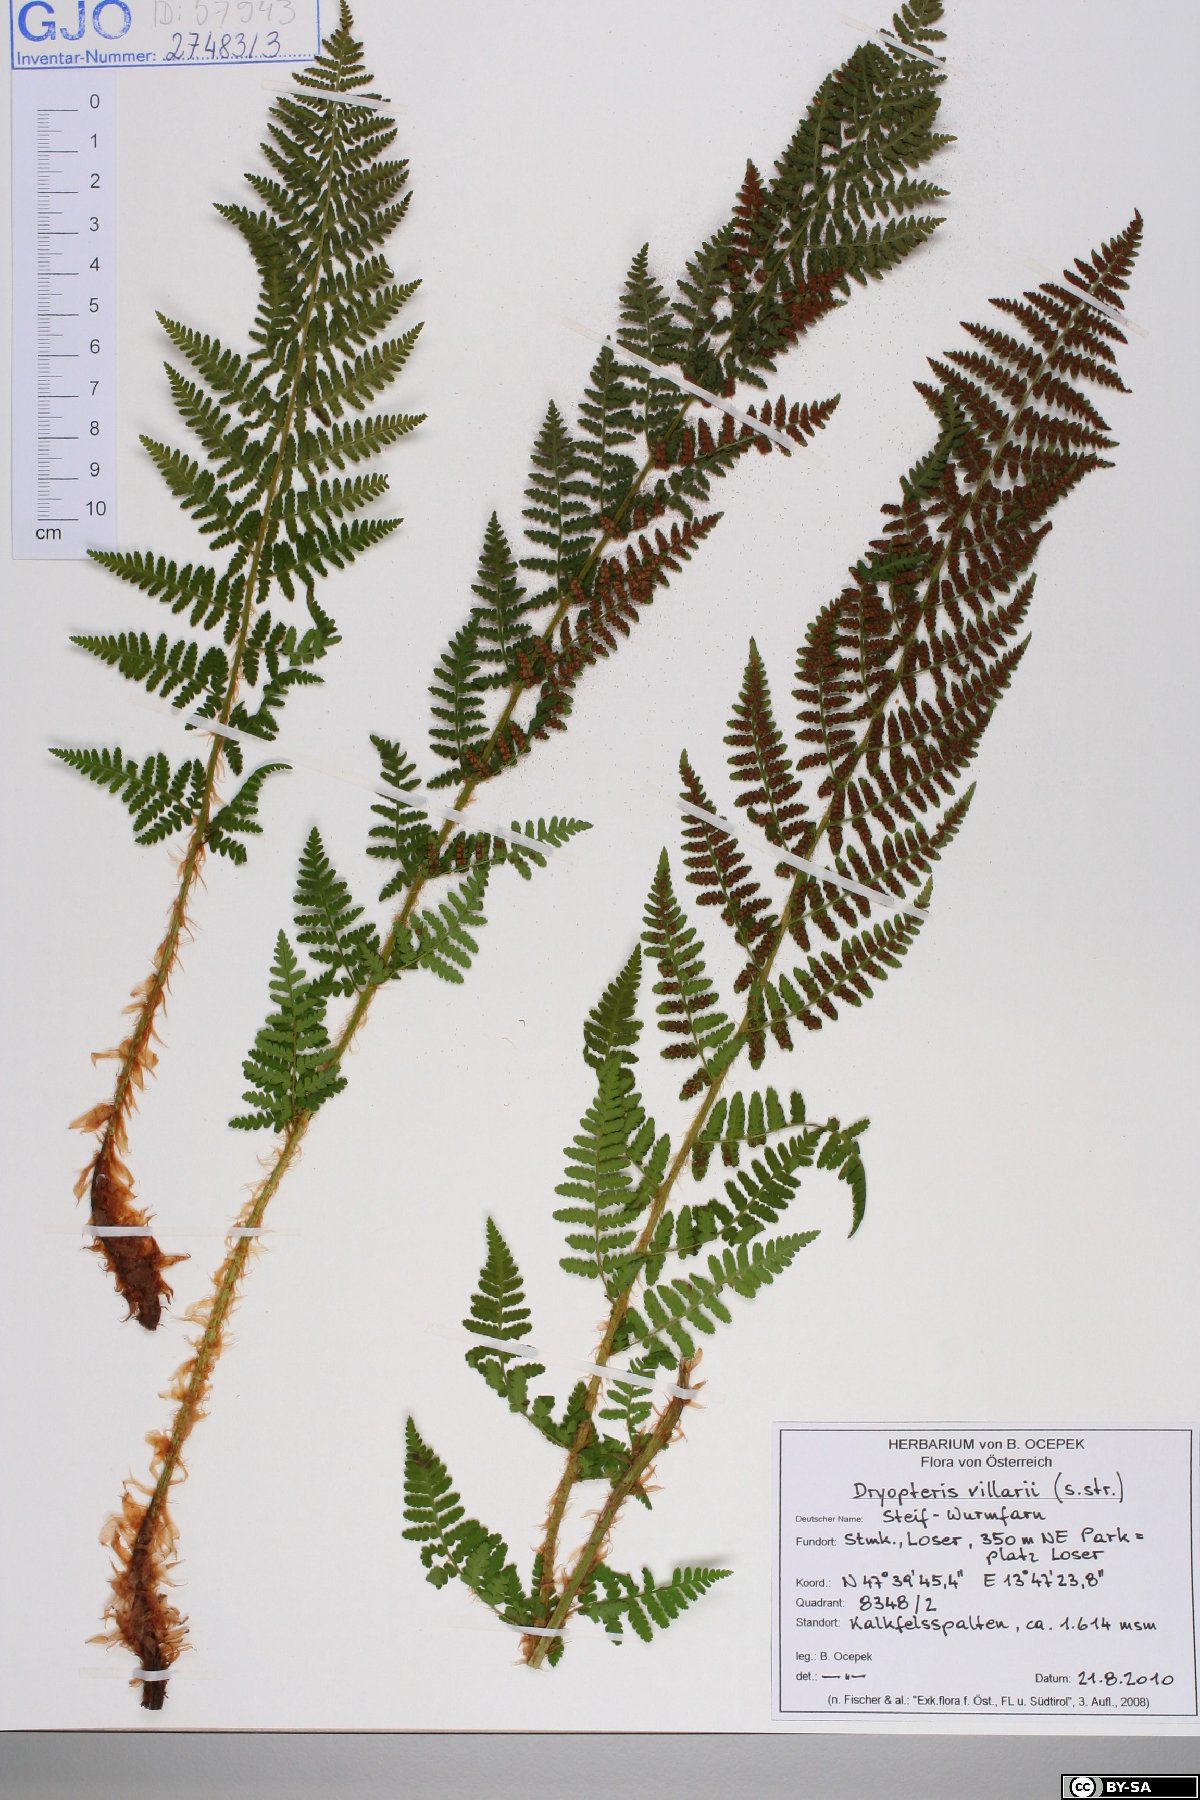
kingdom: Plantae
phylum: Tracheophyta
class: Polypodiopsida
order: Polypodiales
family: Dryopteridaceae
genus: Dryopteris
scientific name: Dryopteris villarii
